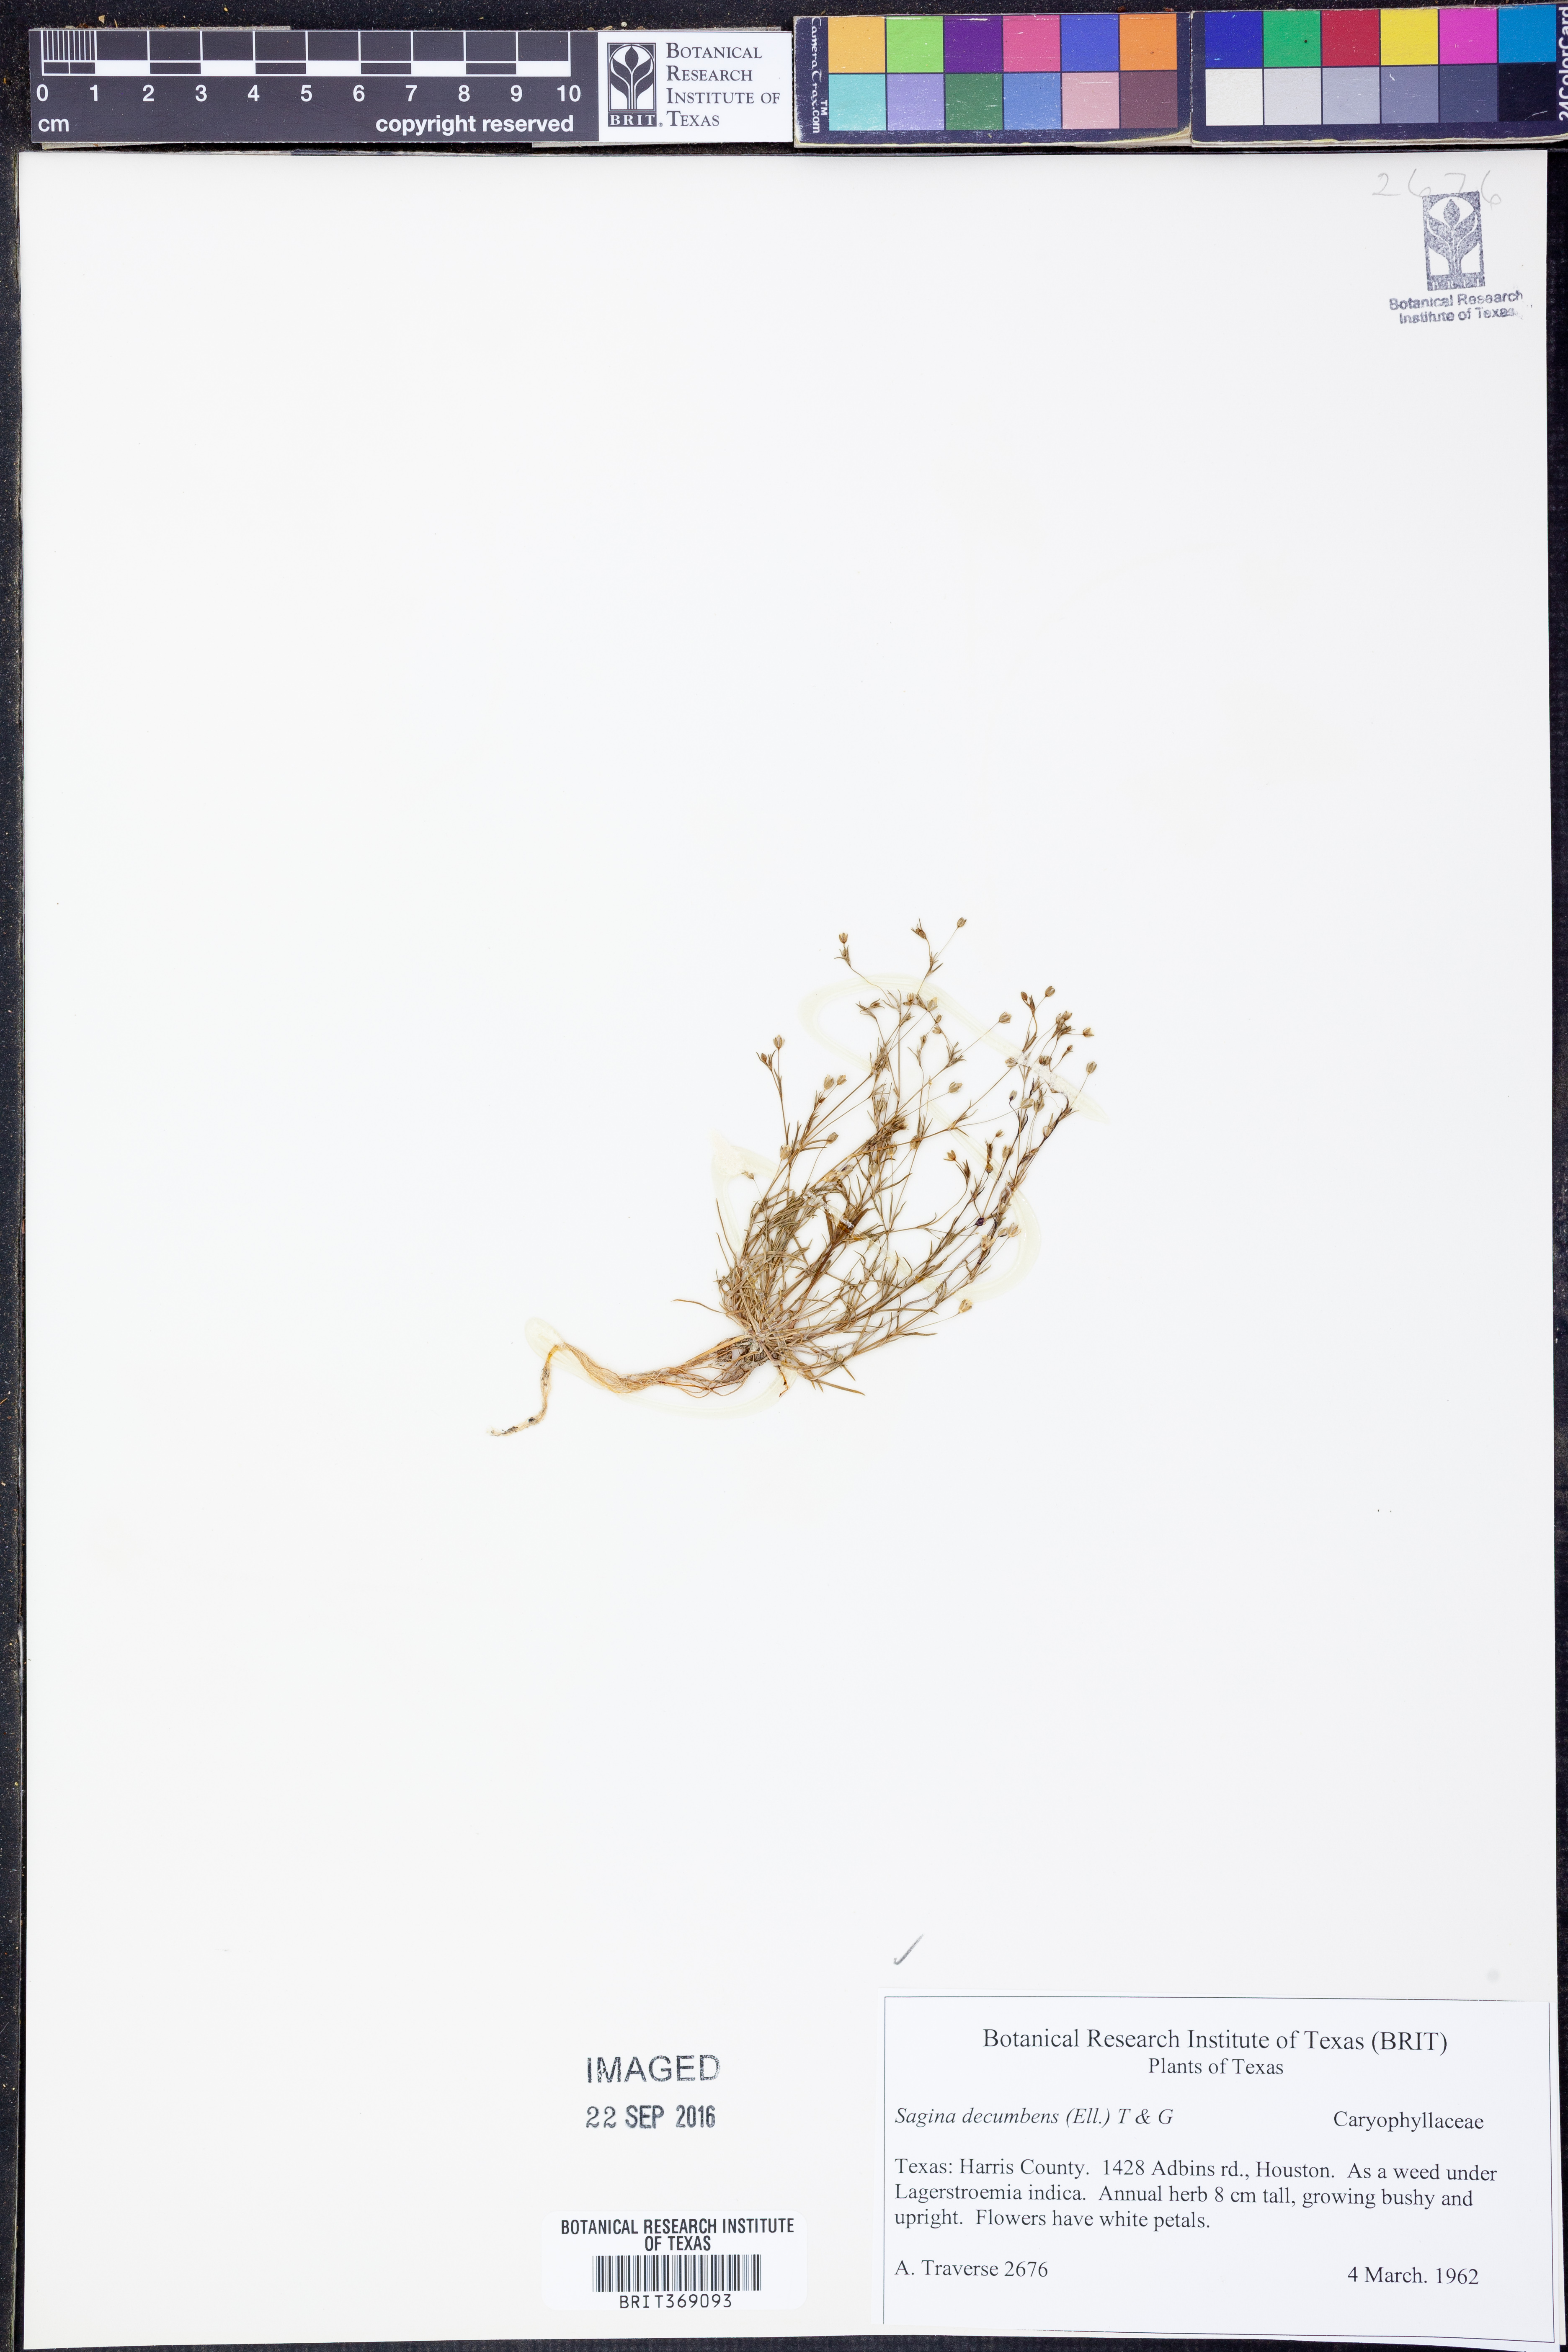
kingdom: Plantae
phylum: Tracheophyta
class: Magnoliopsida
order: Caryophyllales
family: Caryophyllaceae
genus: Sagina
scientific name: Sagina decumbens
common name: Decumbent pearlwort
